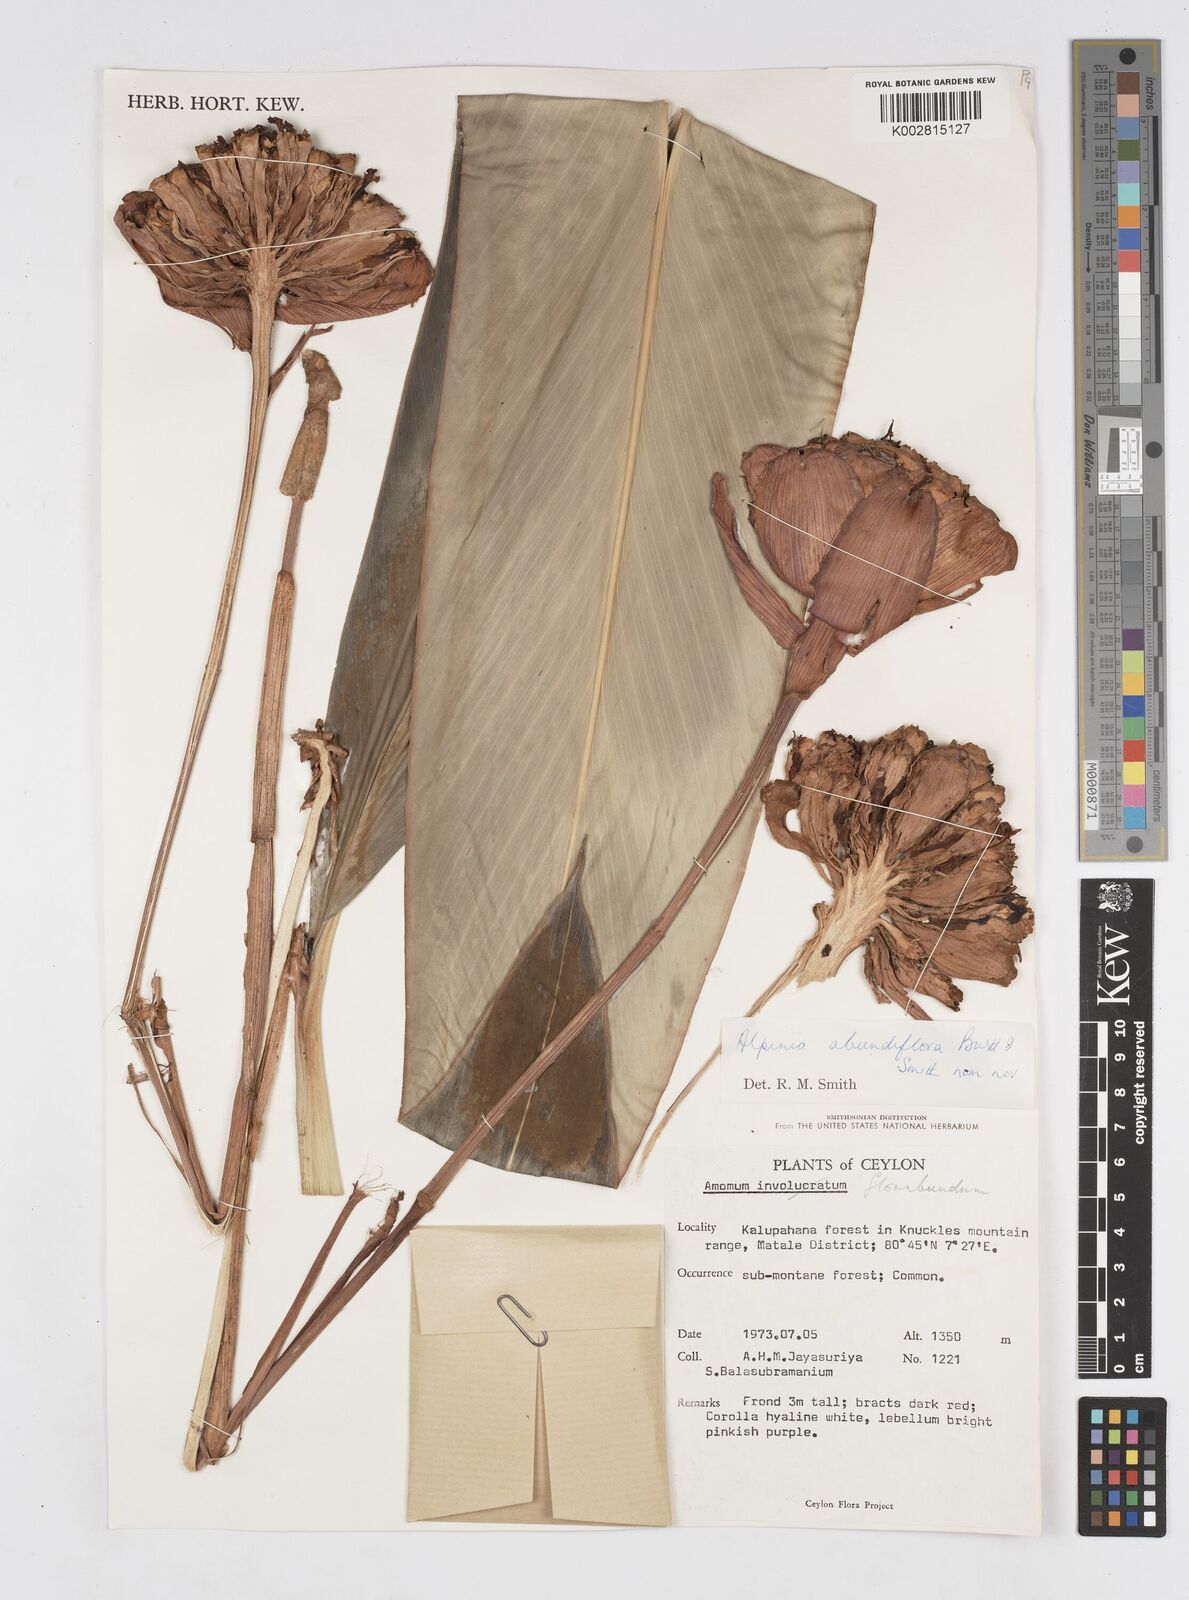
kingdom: Plantae
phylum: Tracheophyta
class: Liliopsida
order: Zingiberales
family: Zingiberaceae
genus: Alpinia
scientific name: Alpinia abundiflora
